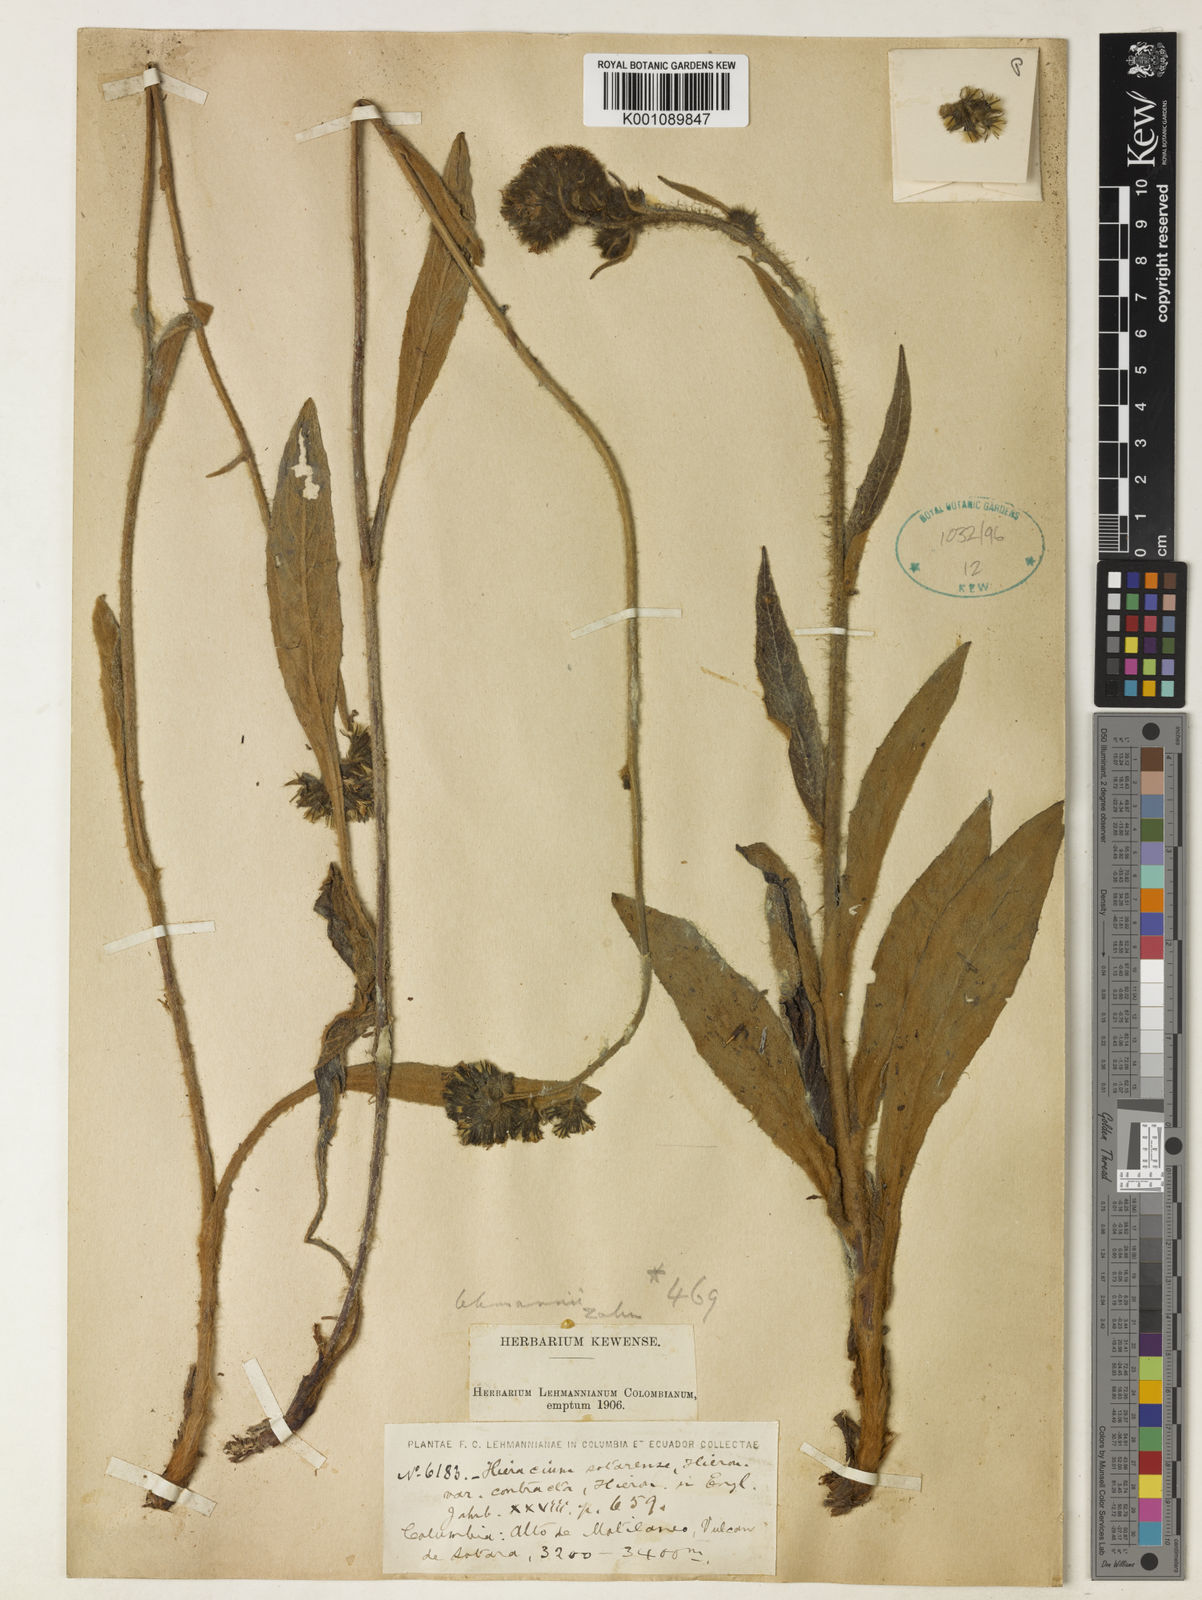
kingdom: Plantae
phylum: Tracheophyta
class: Magnoliopsida
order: Asterales
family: Asteraceae
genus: Hieracium
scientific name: Hieracium lehmannii
